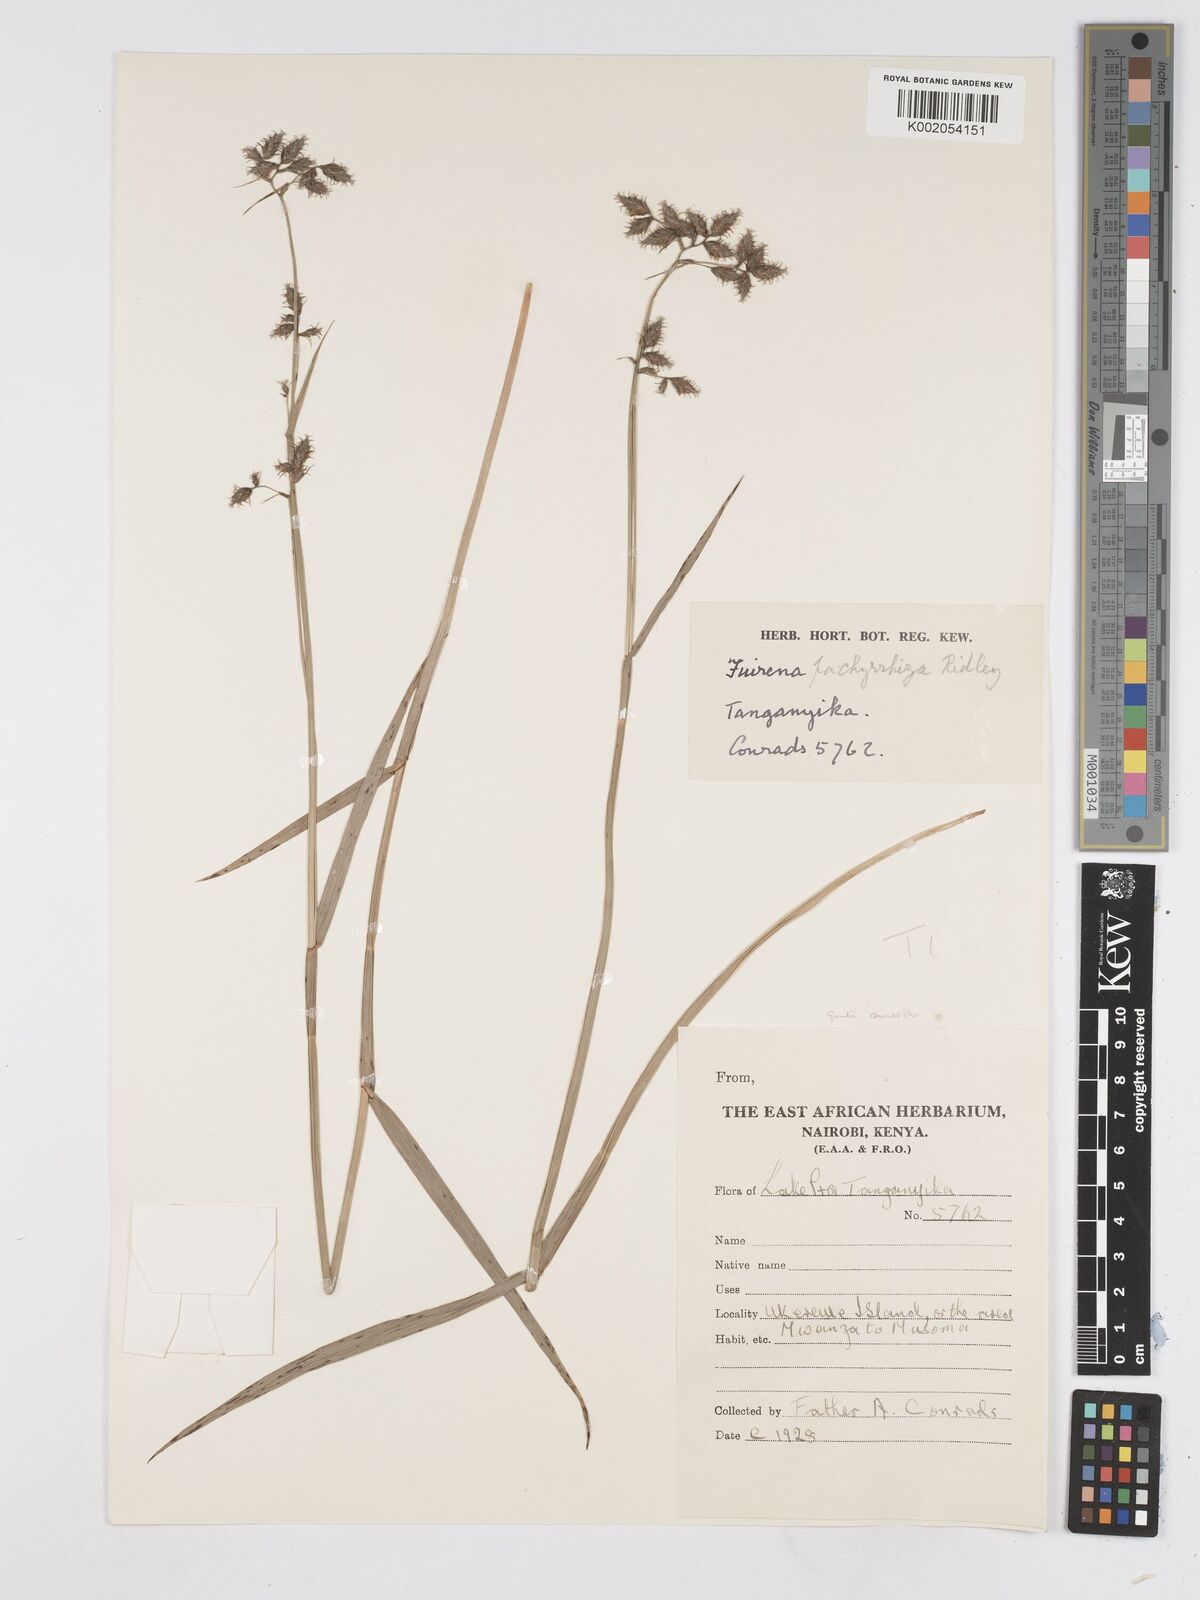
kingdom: Plantae
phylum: Tracheophyta
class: Liliopsida
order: Poales
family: Cyperaceae
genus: Fuirena
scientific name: Fuirena pachyrrhiza
